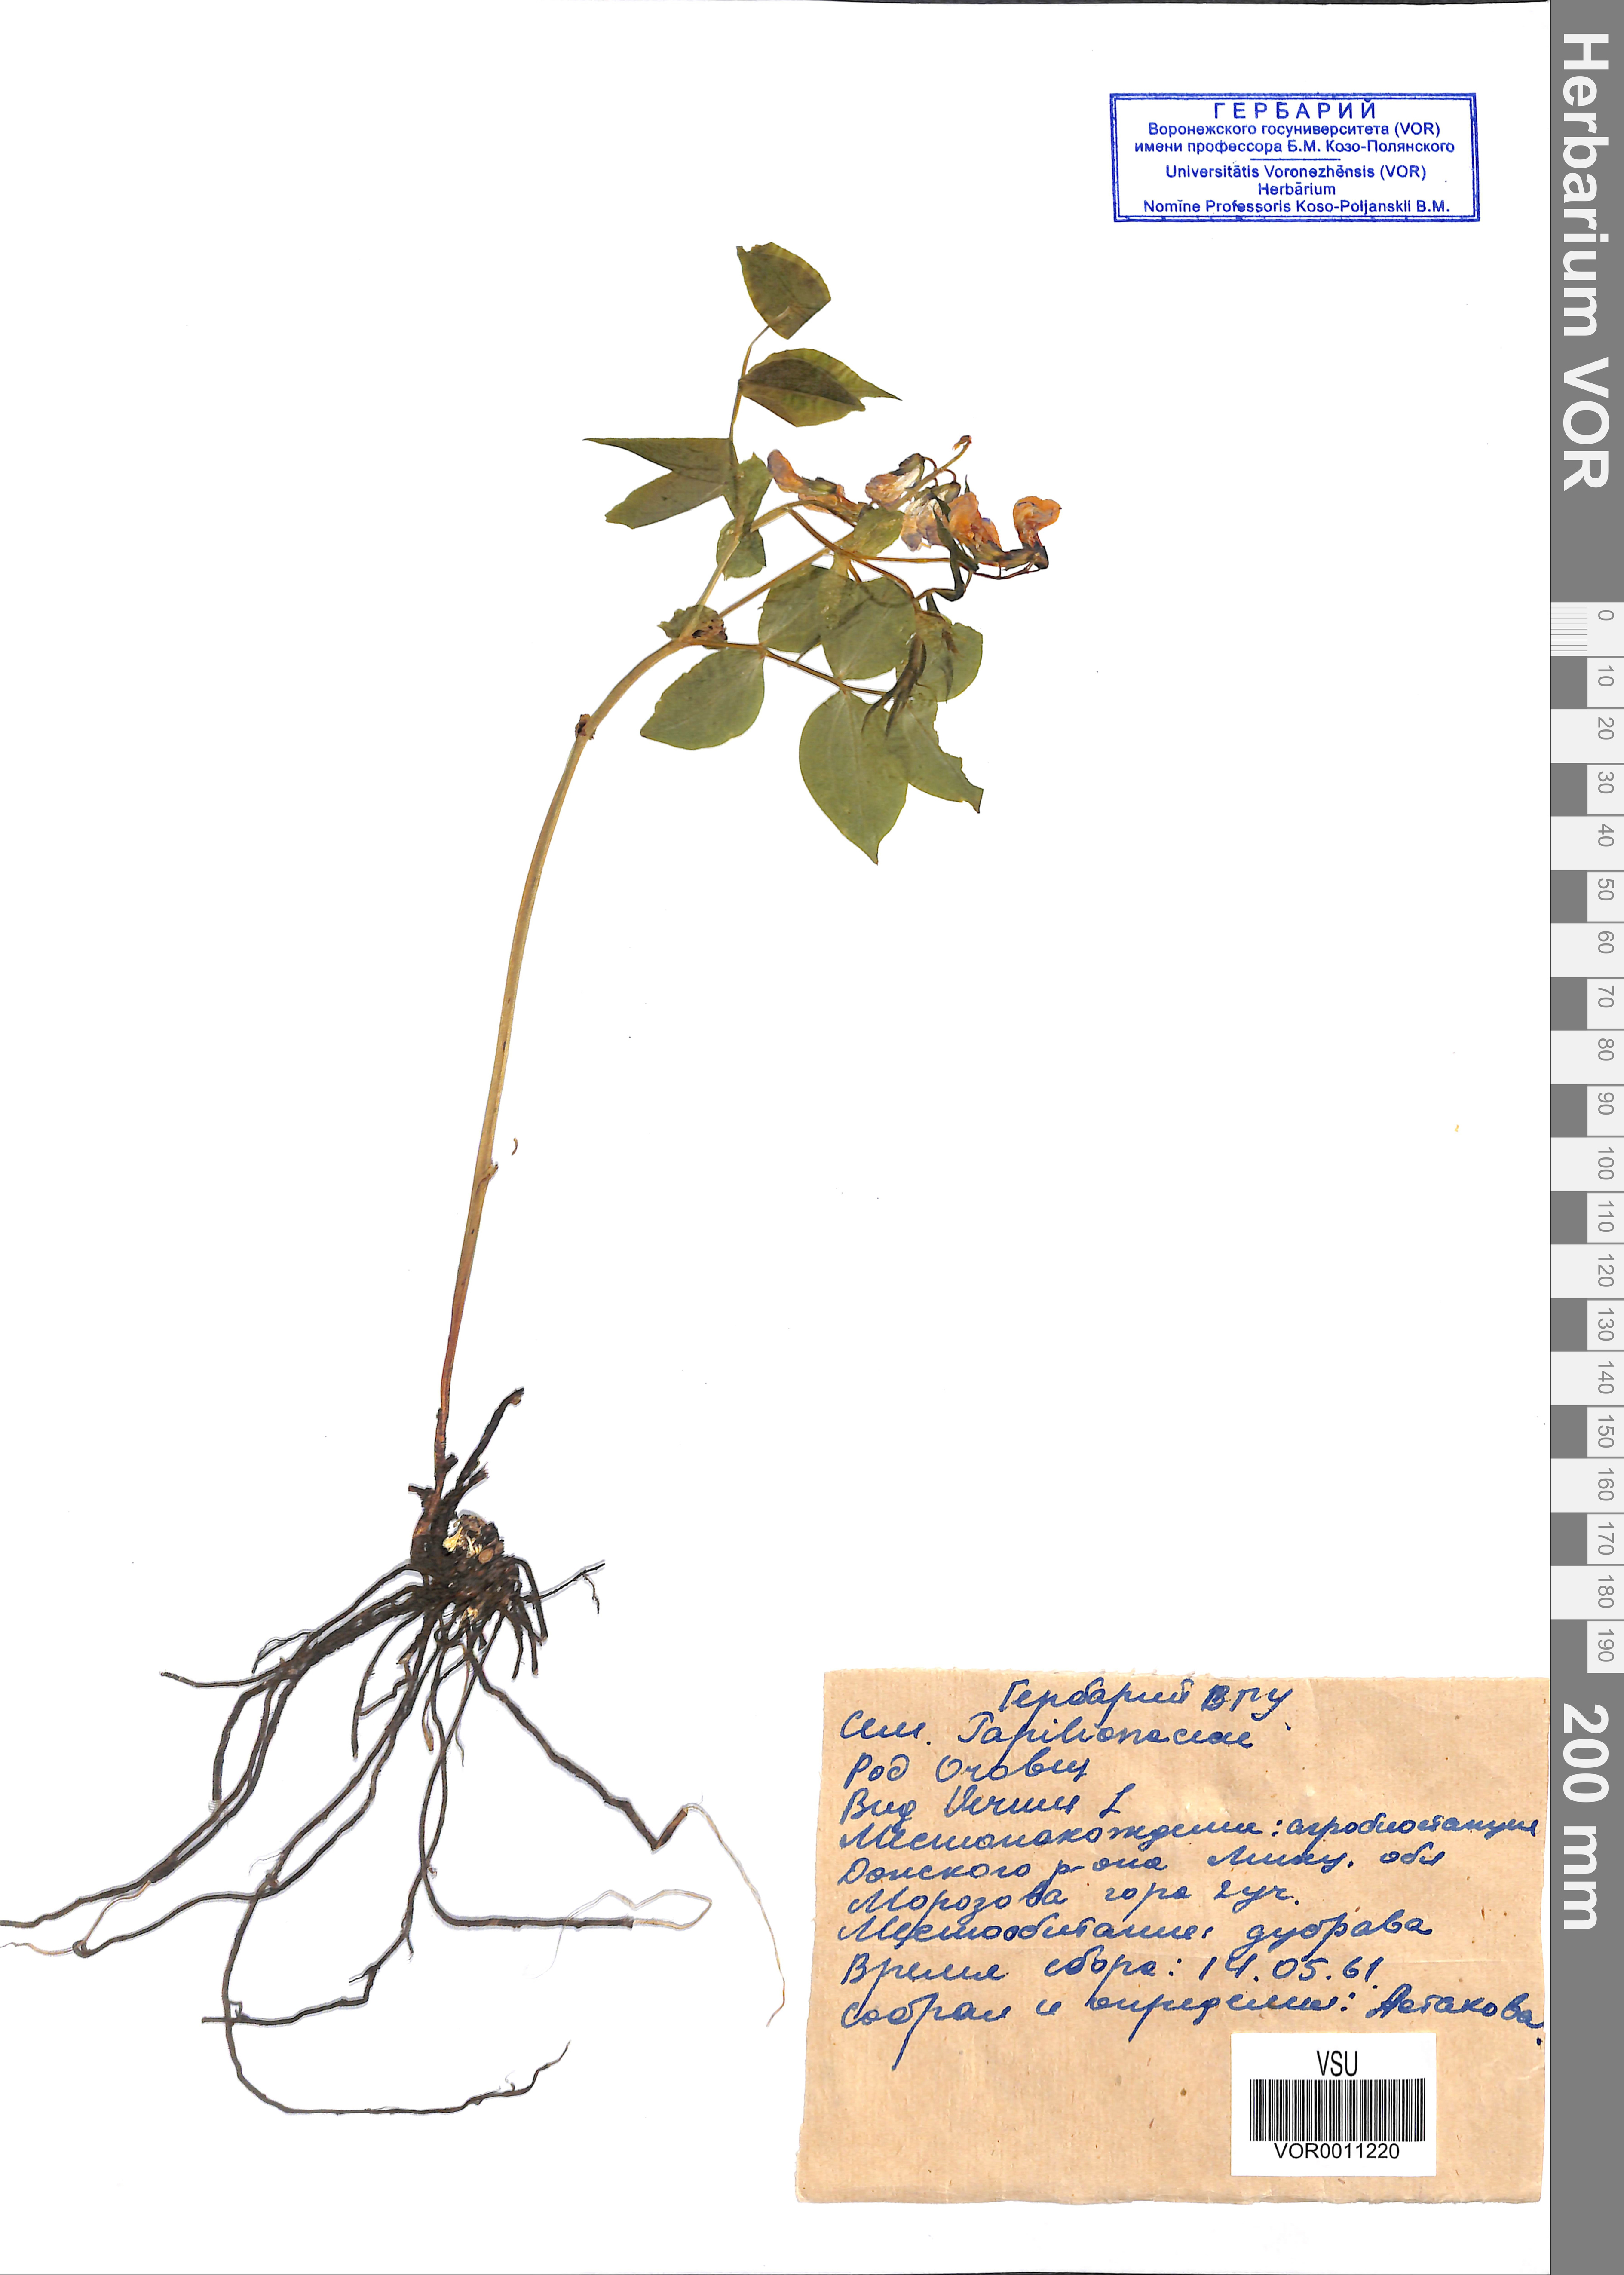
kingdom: Plantae
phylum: Tracheophyta
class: Magnoliopsida
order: Fabales
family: Fabaceae
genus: Lathyrus
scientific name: Lathyrus vernus
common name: Spring pea
